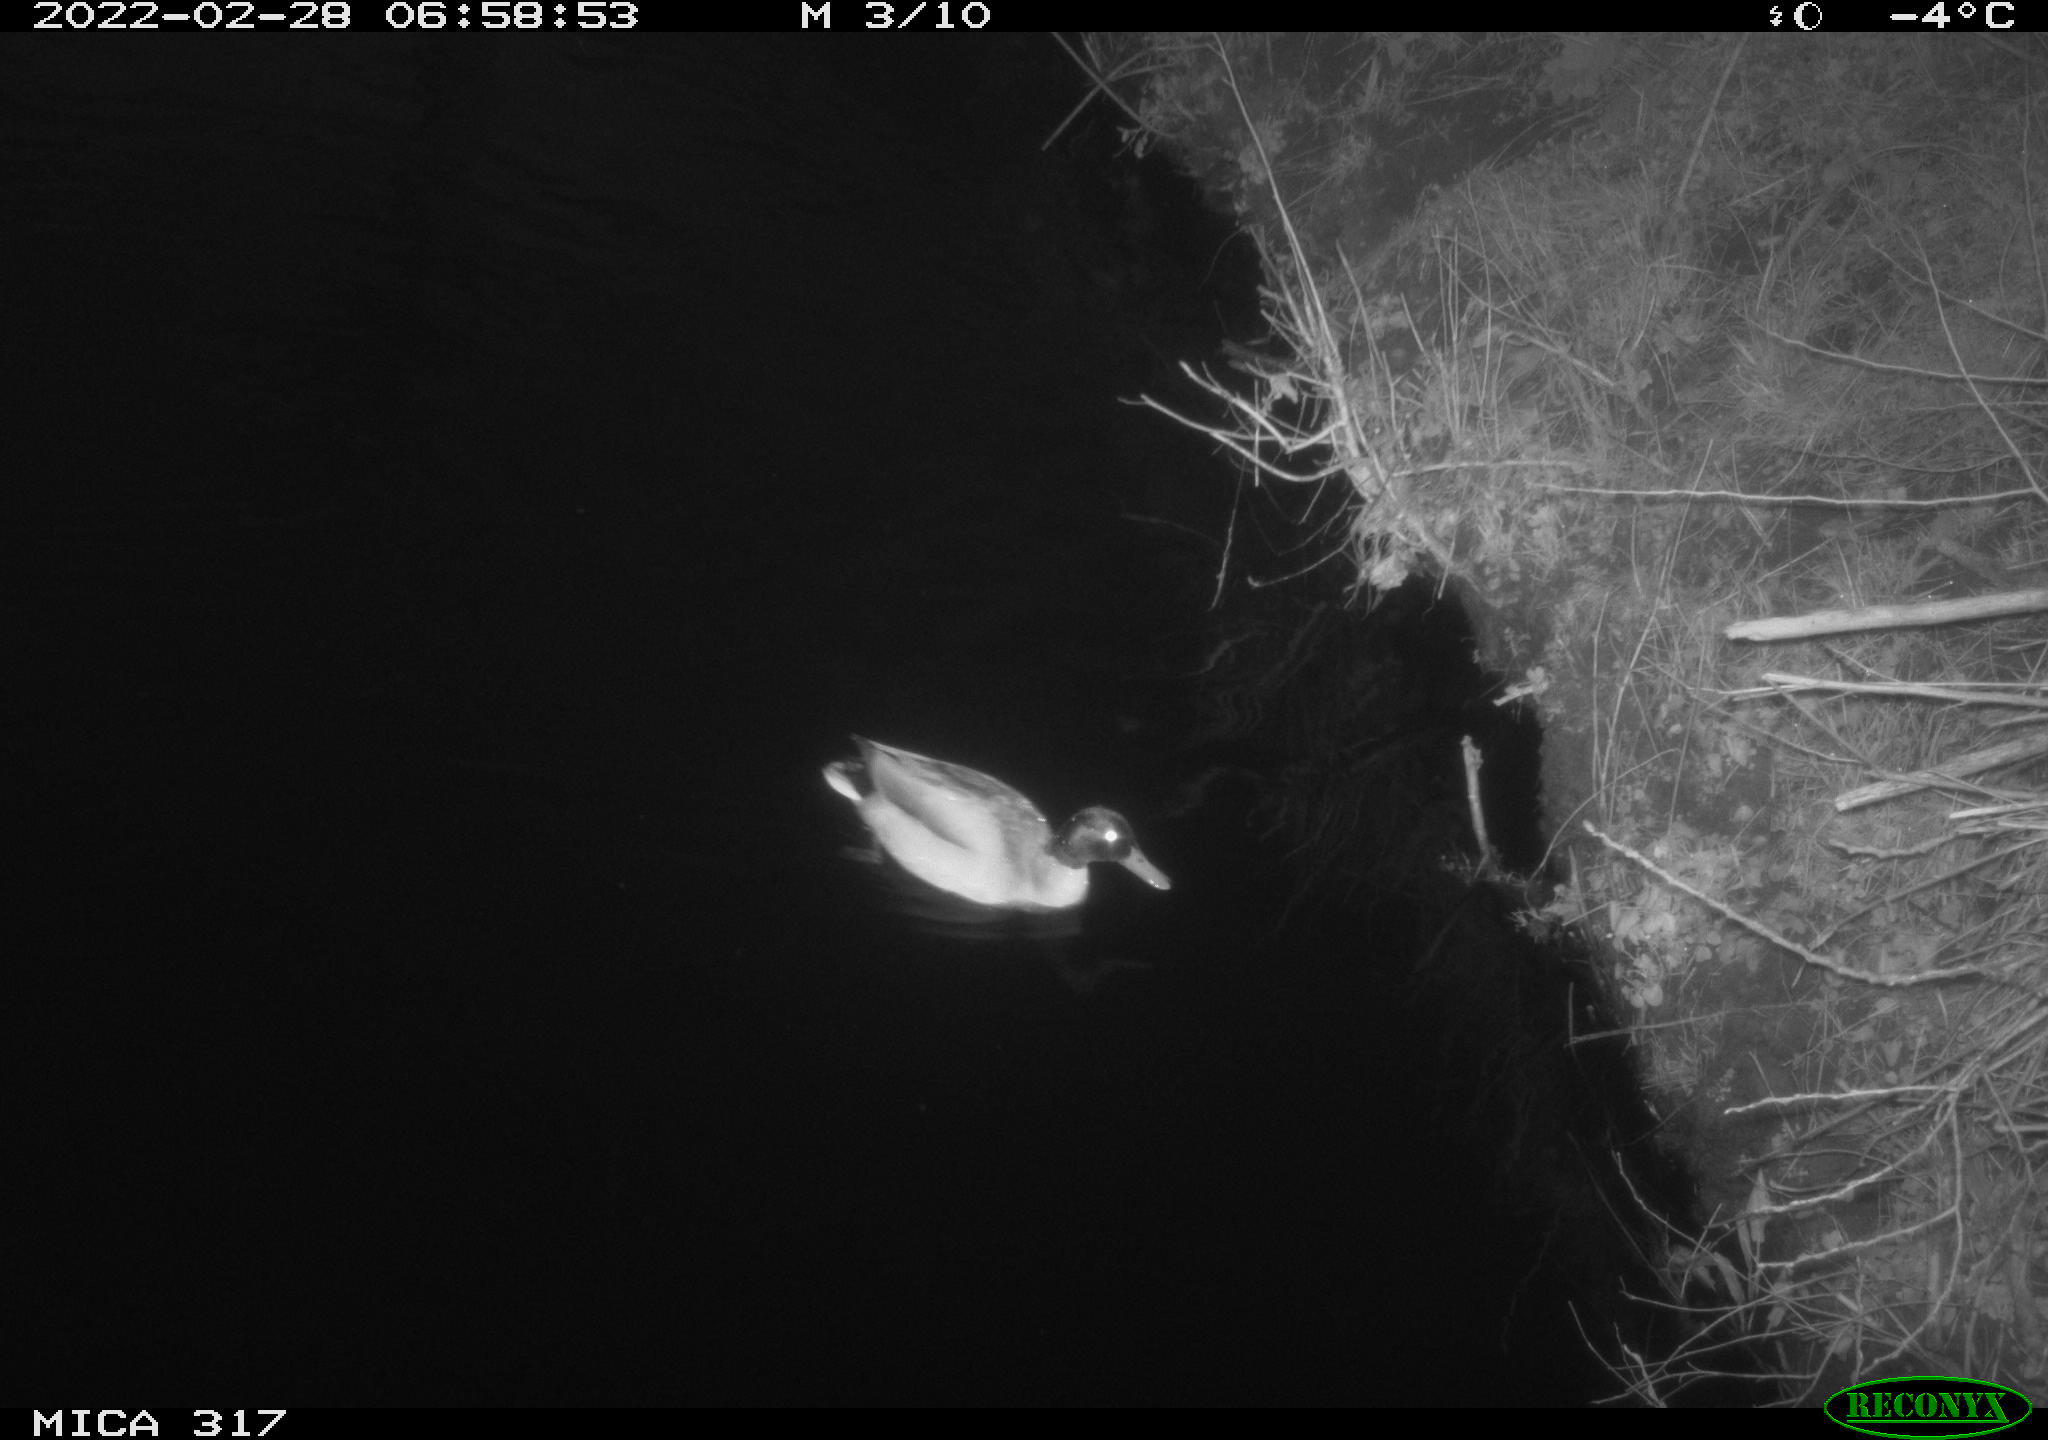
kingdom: Animalia
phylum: Chordata
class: Aves
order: Anseriformes
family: Anatidae
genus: Anas
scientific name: Anas platyrhynchos
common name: Mallard
